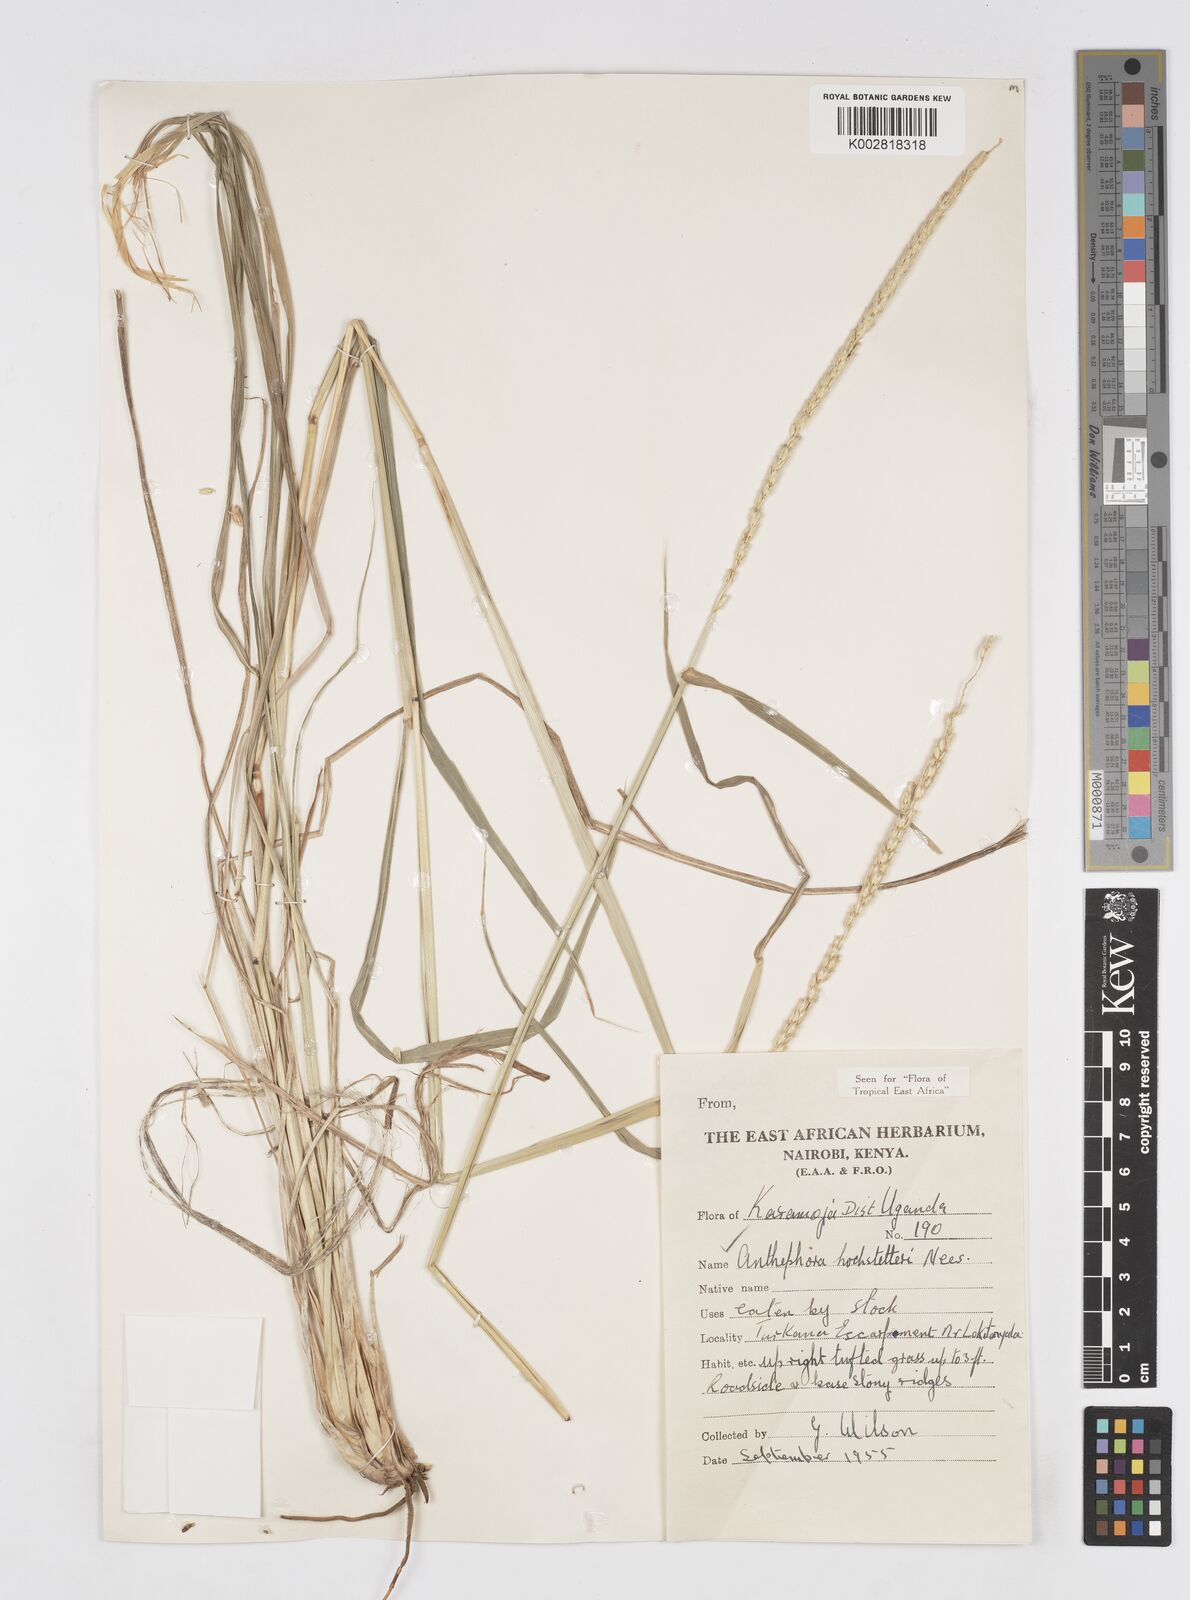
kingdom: Plantae
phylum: Tracheophyta
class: Liliopsida
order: Poales
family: Poaceae
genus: Anthephora
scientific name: Anthephora pubescens
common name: Wool grass
